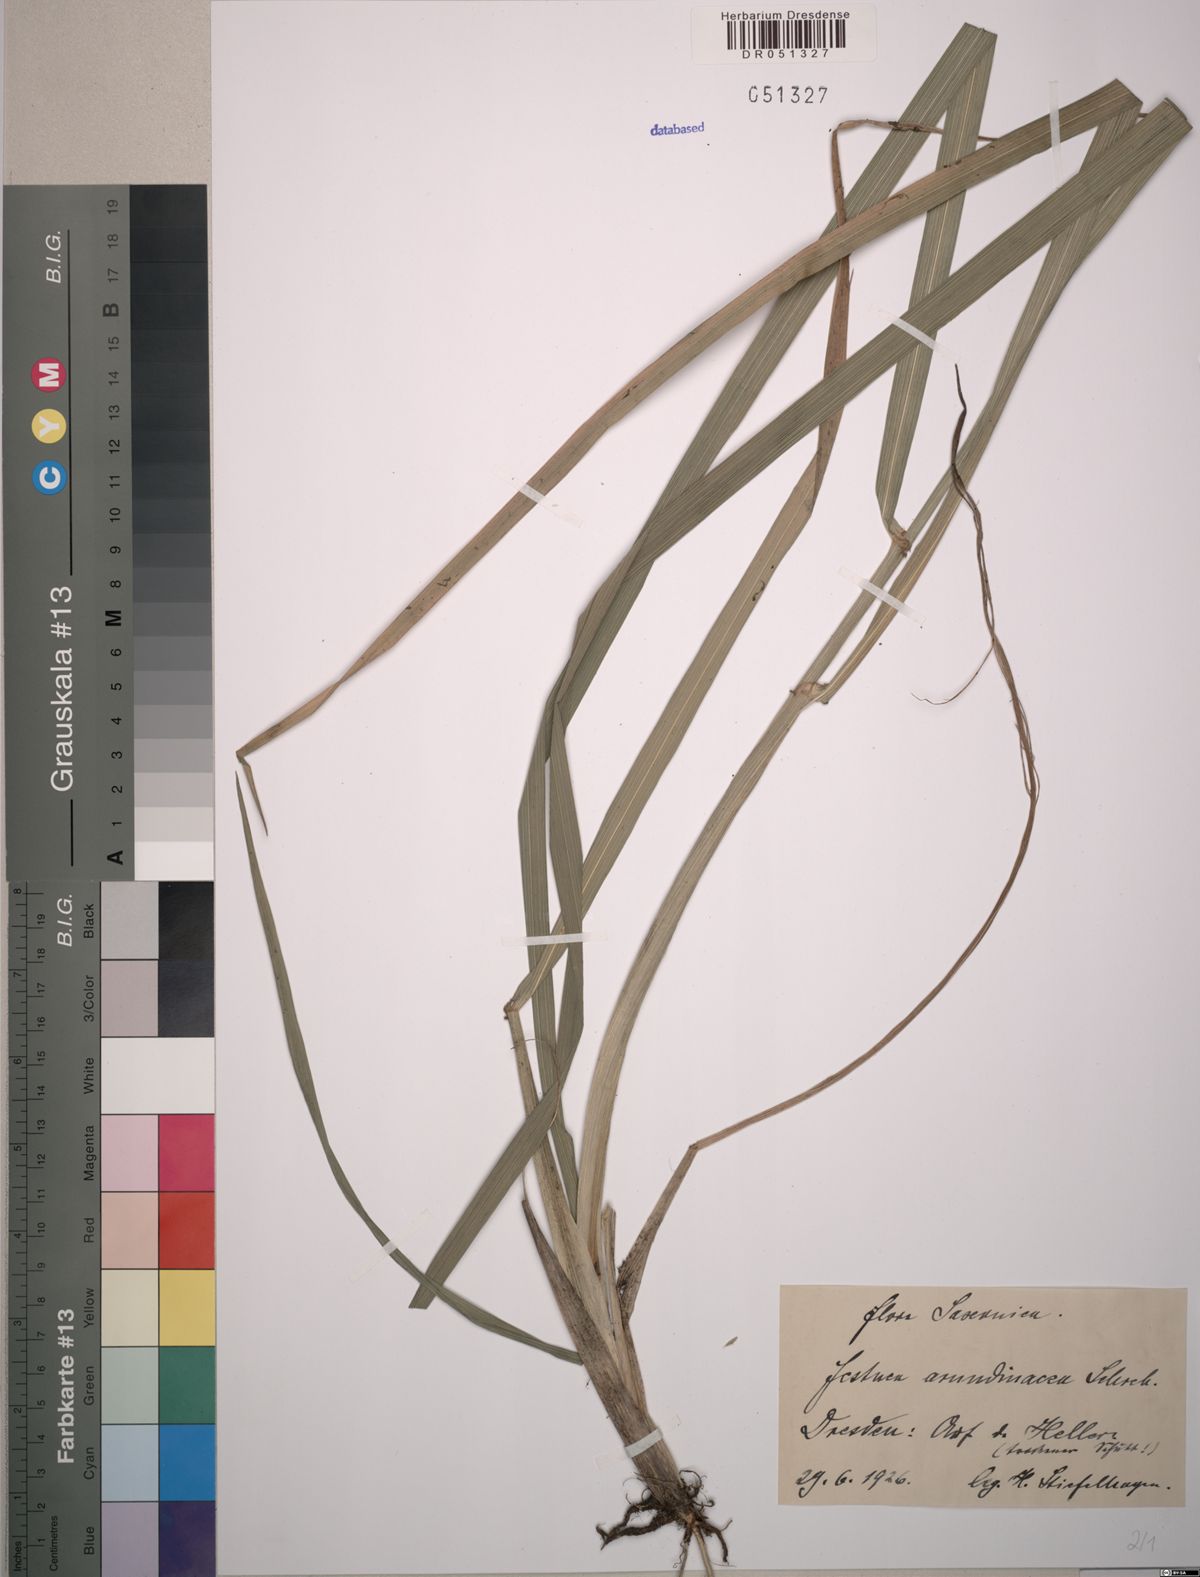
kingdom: Plantae
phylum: Tracheophyta
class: Liliopsida
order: Poales
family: Poaceae
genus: Lolium
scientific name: Lolium arundinaceum
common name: Reed fescue
